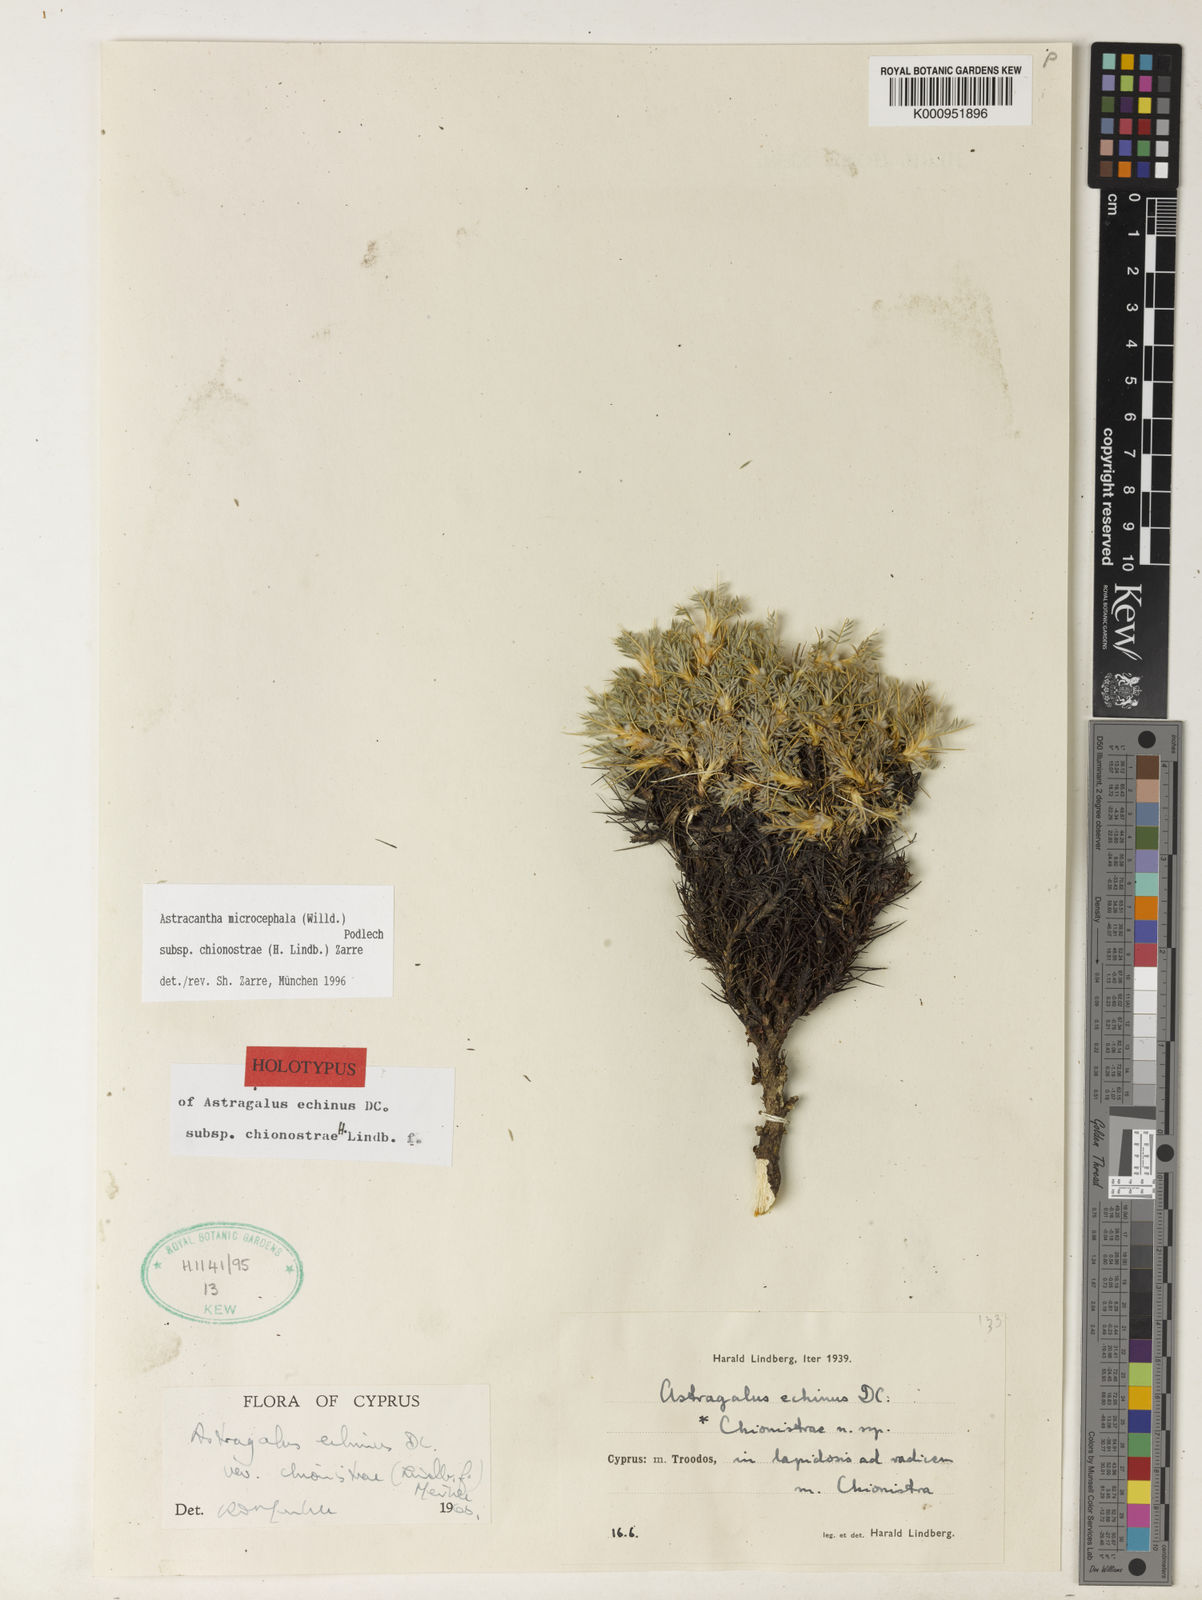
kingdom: Plantae
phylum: Tracheophyta
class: Magnoliopsida
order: Fabales
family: Fabaceae
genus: Astragalus
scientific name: Astragalus echinus
